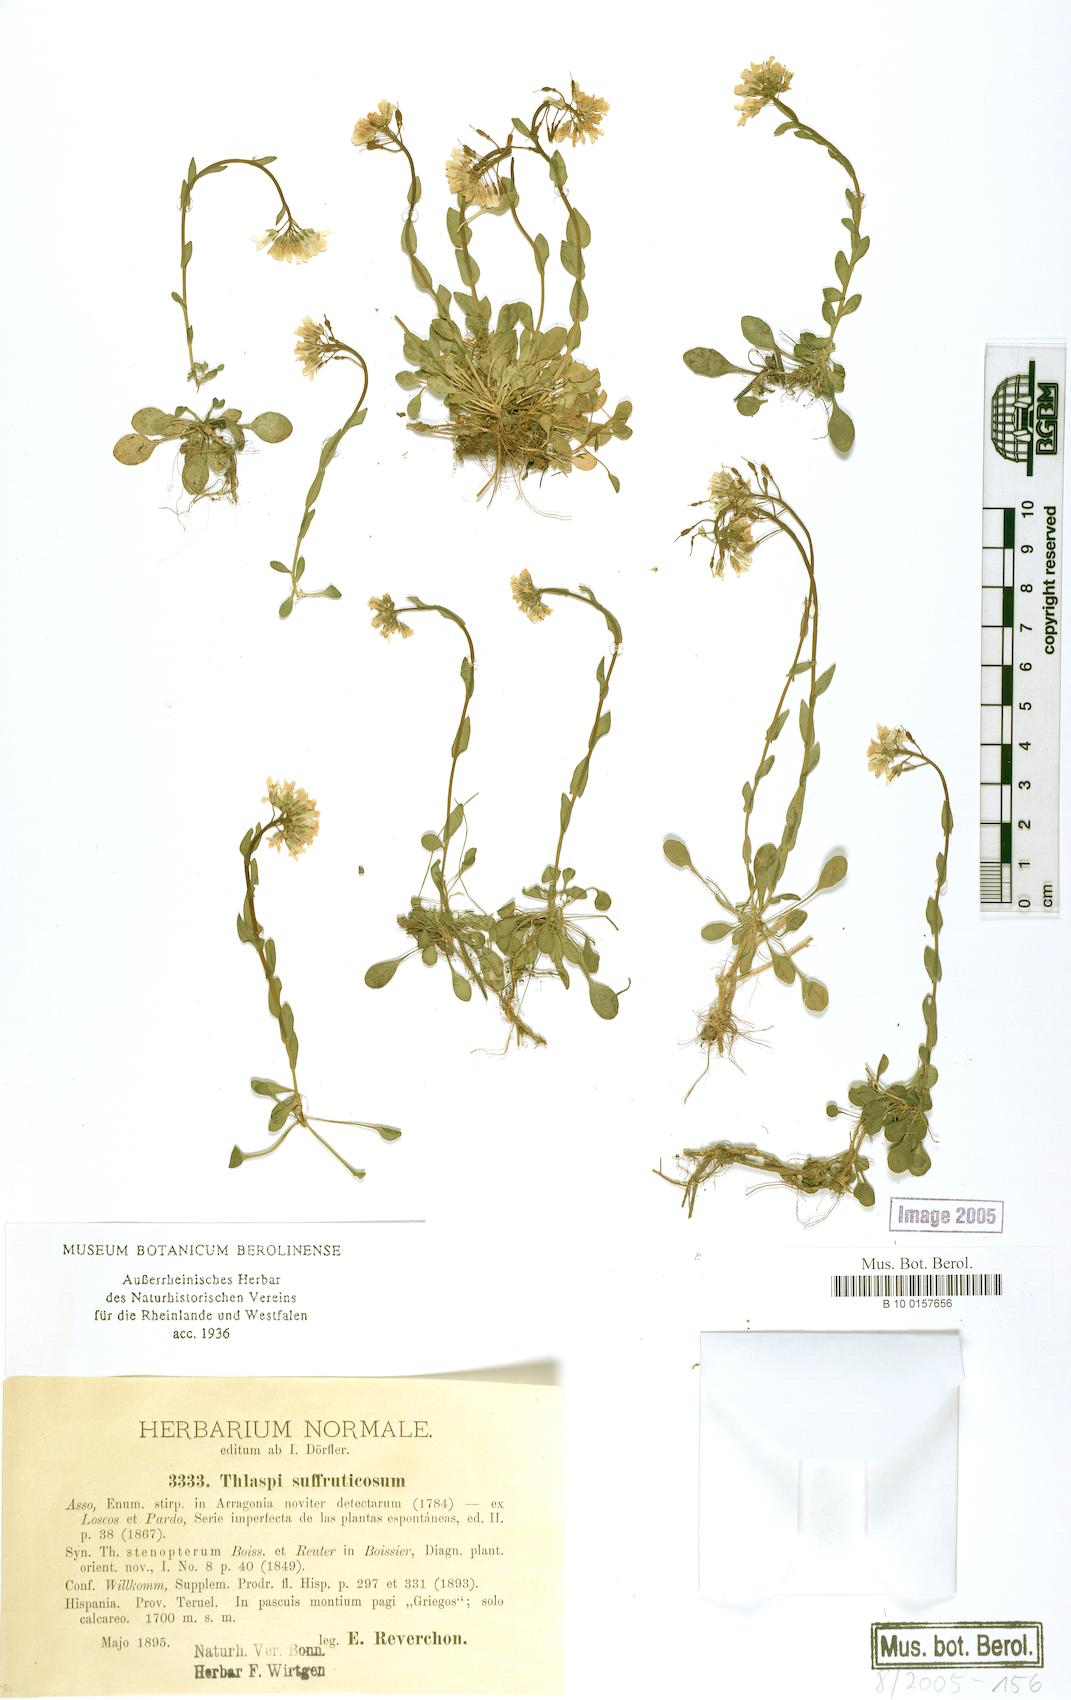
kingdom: Plantae
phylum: Tracheophyta
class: Magnoliopsida
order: Brassicales
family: Brassicaceae
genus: Noccaea
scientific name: Noccaea stenoptera
